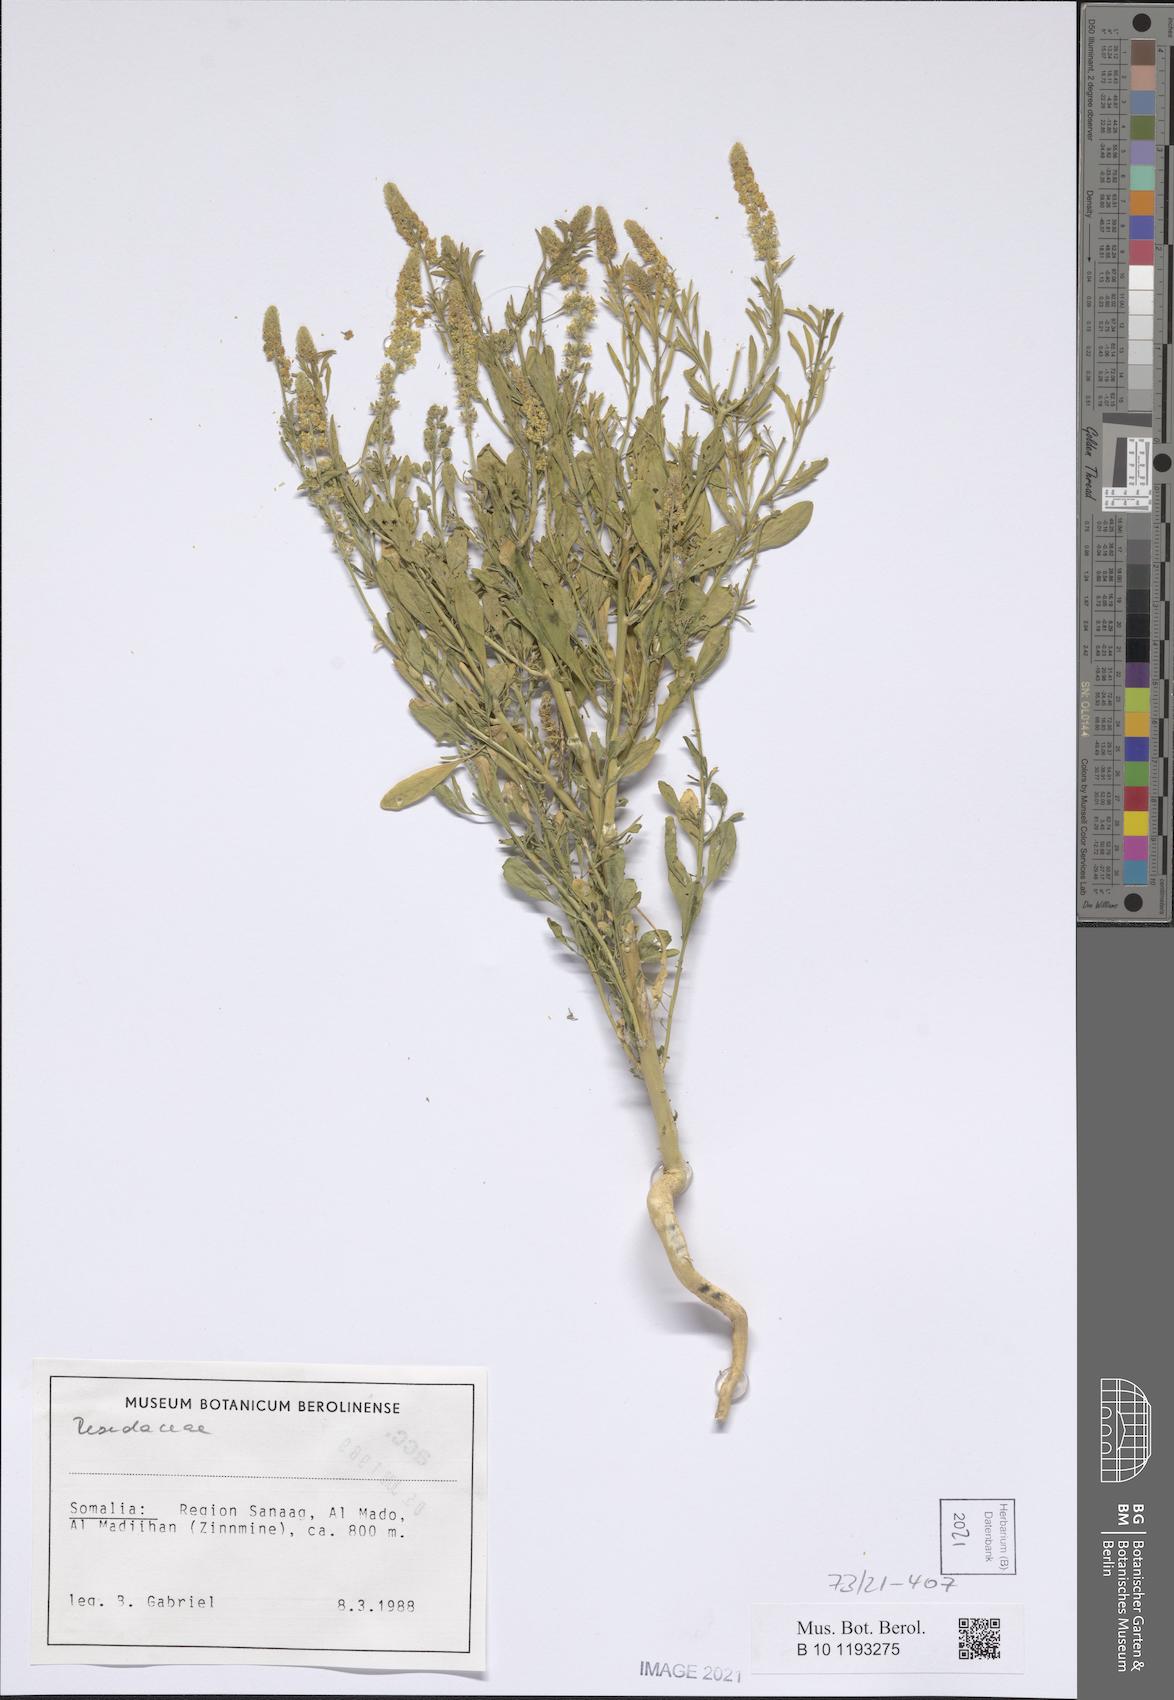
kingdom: Plantae
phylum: Tracheophyta
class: Magnoliopsida
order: Brassicales
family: Resedaceae
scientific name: Resedaceae
